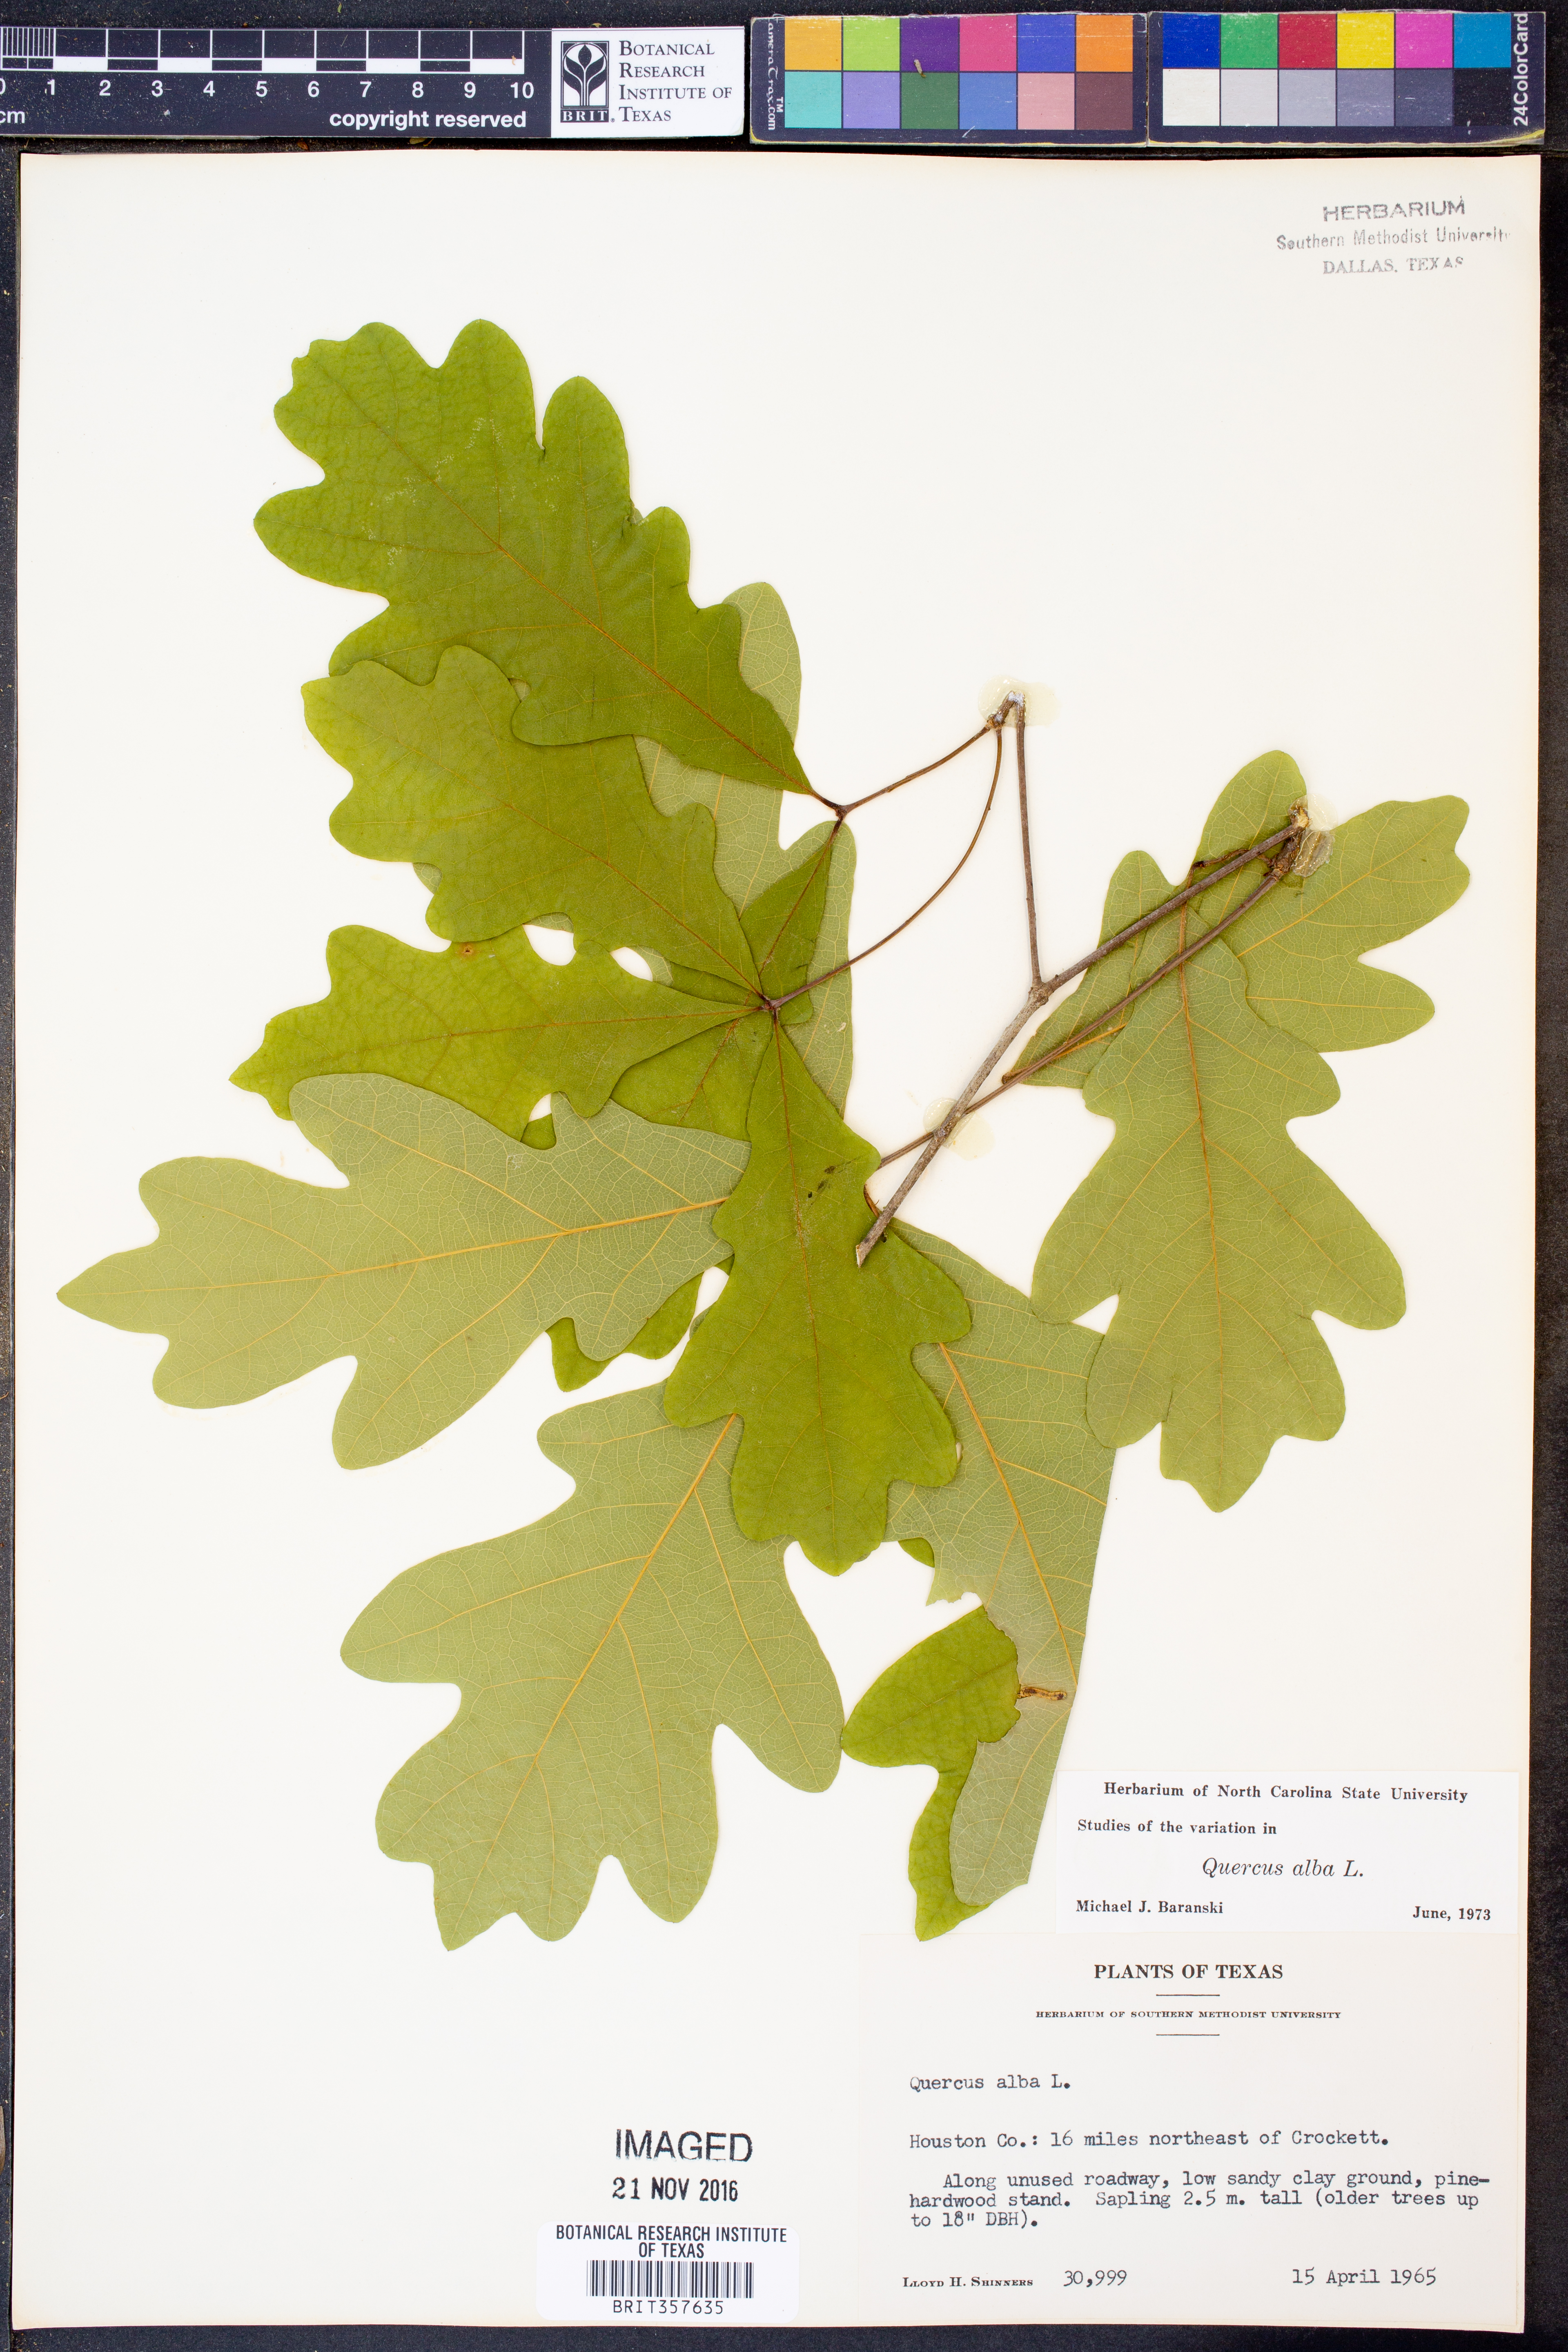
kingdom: Plantae
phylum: Tracheophyta
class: Magnoliopsida
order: Fagales
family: Fagaceae
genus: Quercus
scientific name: Quercus alba
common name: White oak
